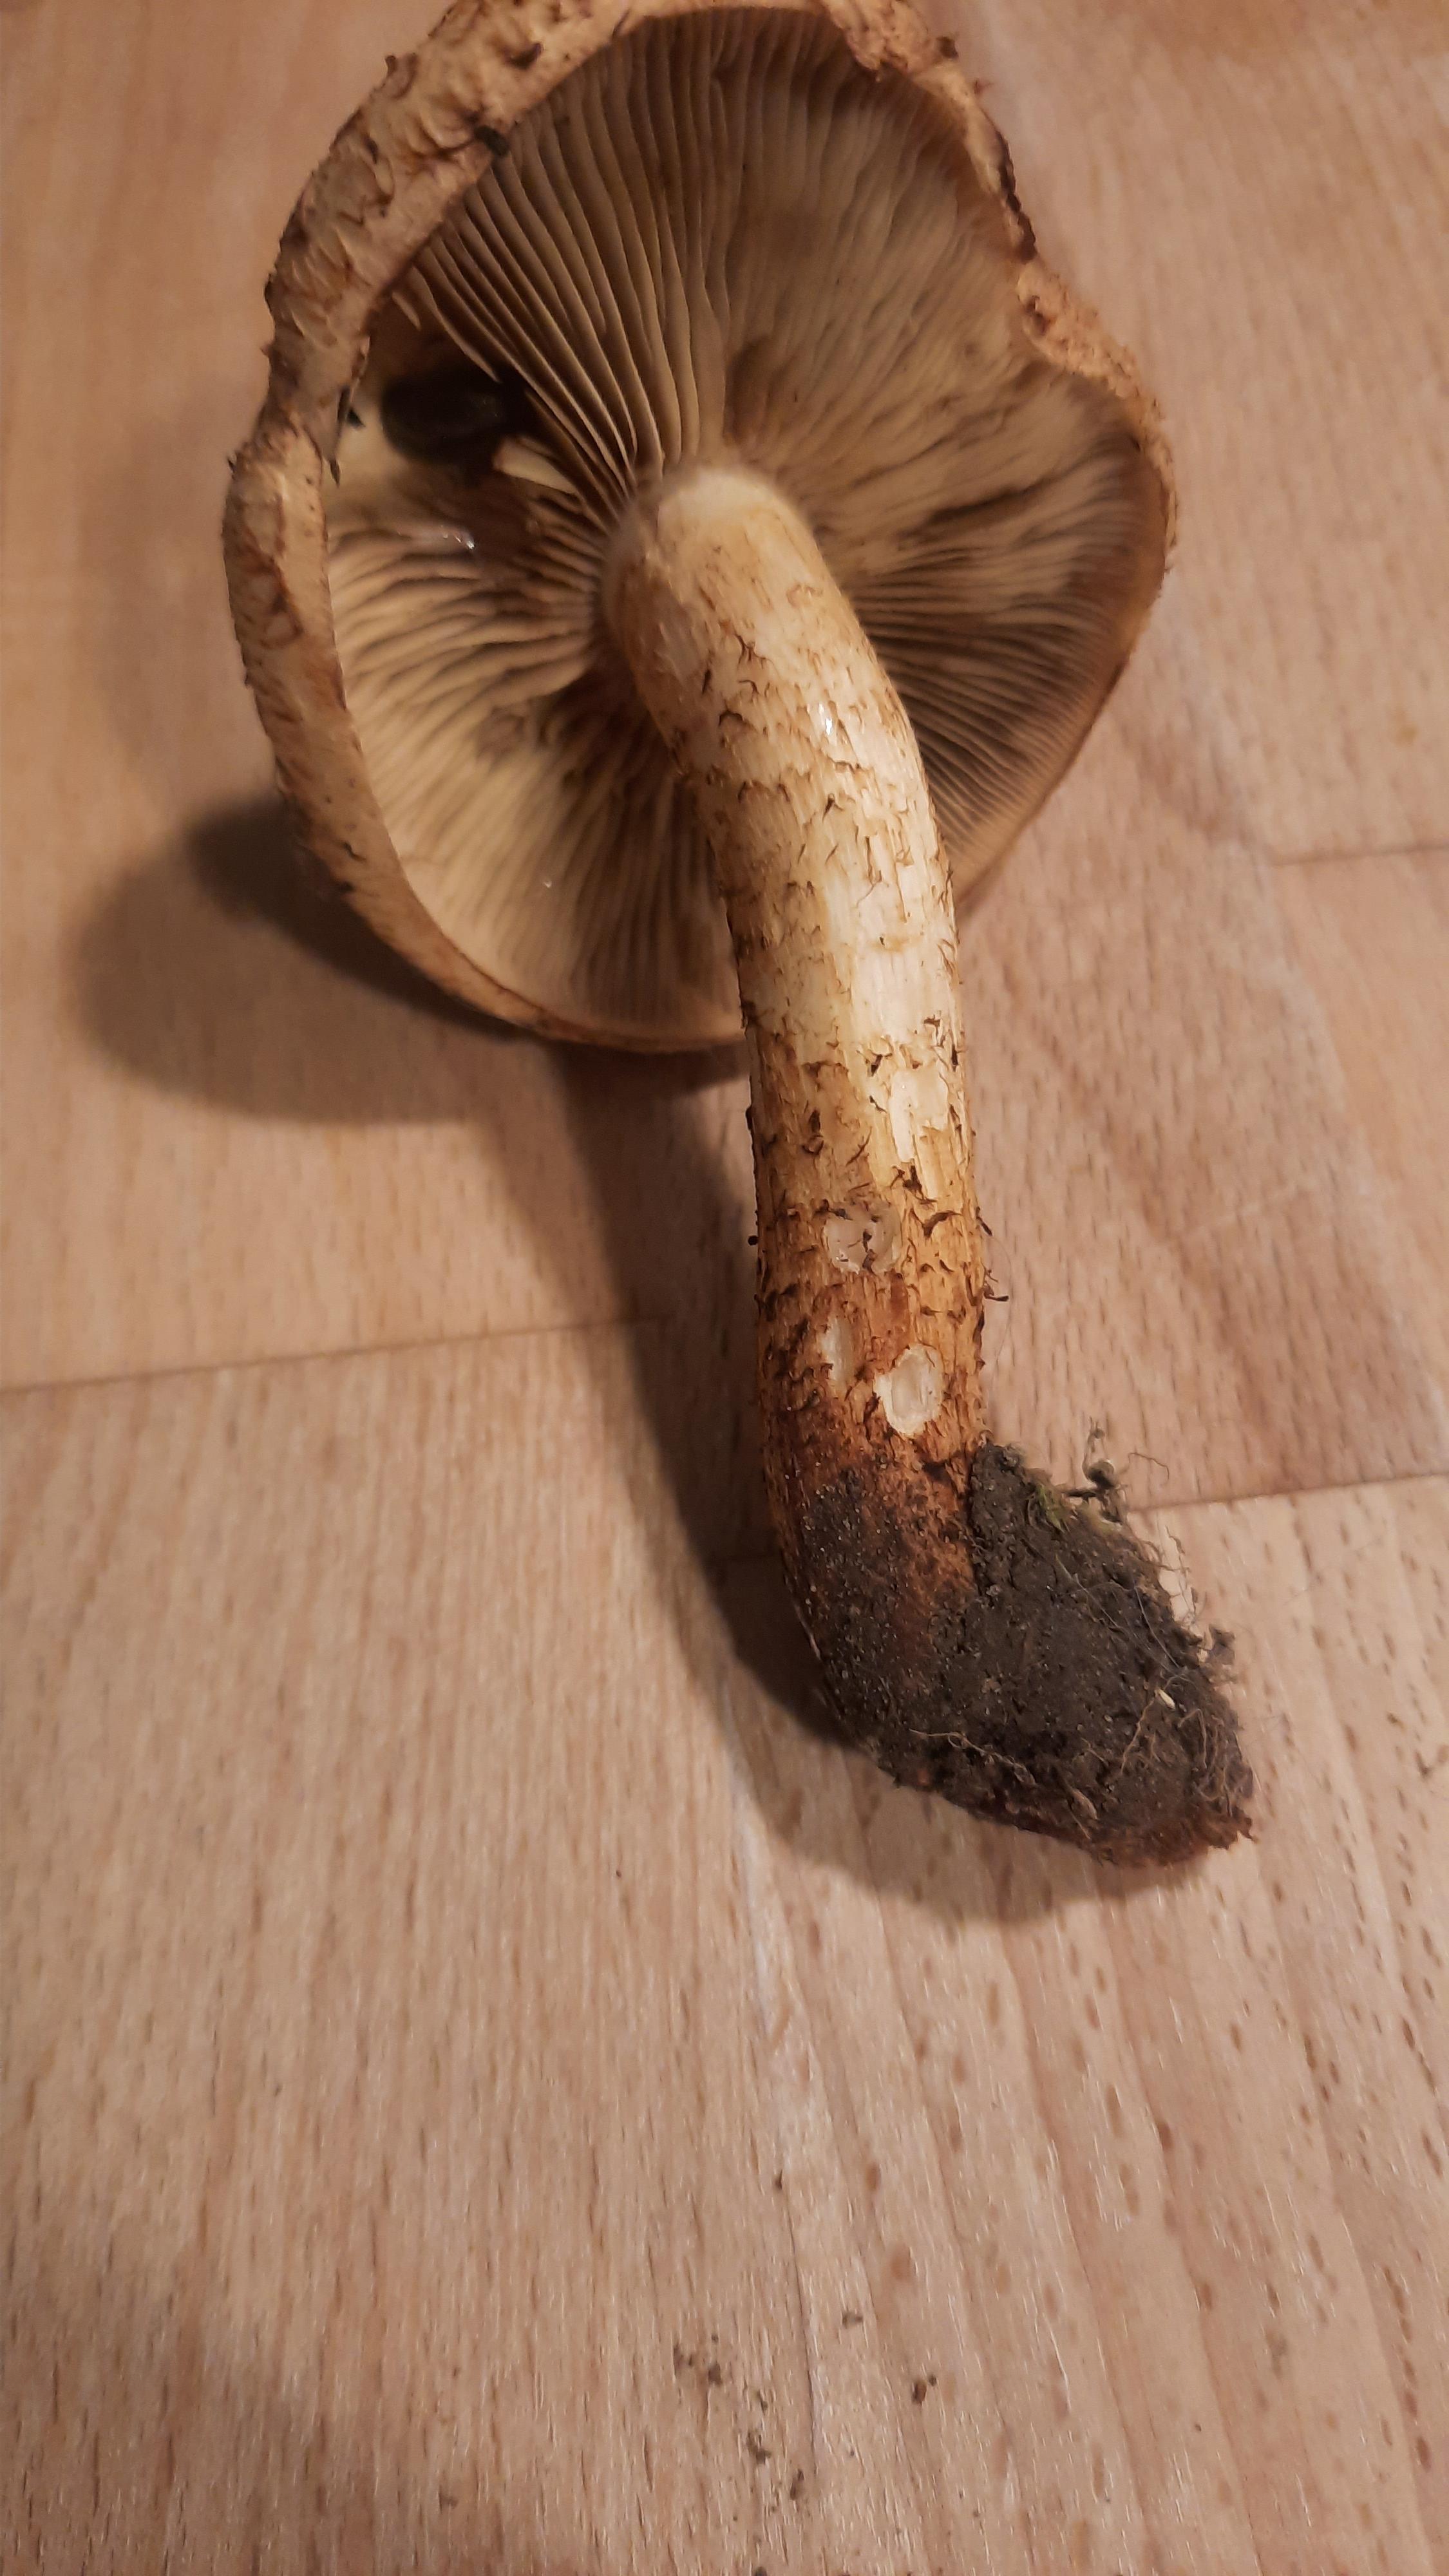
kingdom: Fungi
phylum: Basidiomycota
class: Agaricomycetes
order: Agaricales
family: Strophariaceae
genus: Pholiota
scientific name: Pholiota squarrosa
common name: krumskællet skælhat
